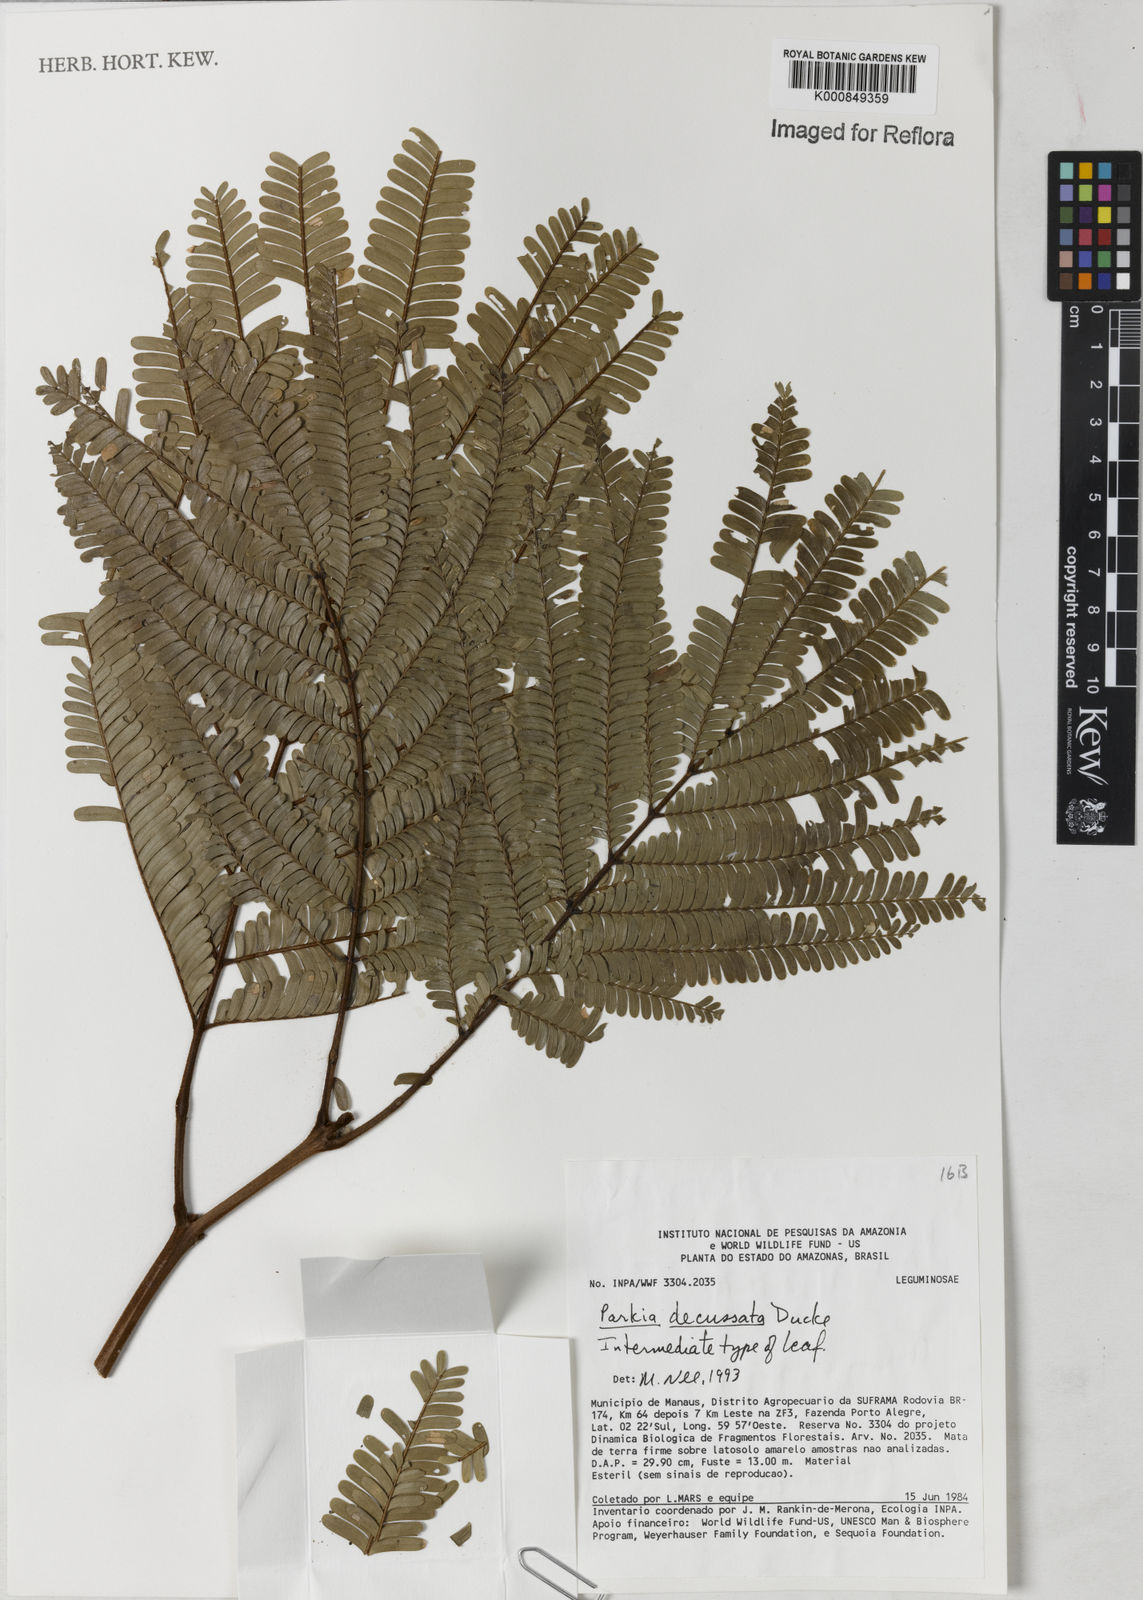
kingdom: Plantae
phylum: Tracheophyta
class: Magnoliopsida
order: Fabales
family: Fabaceae
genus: Parkia
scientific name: Parkia decussata
